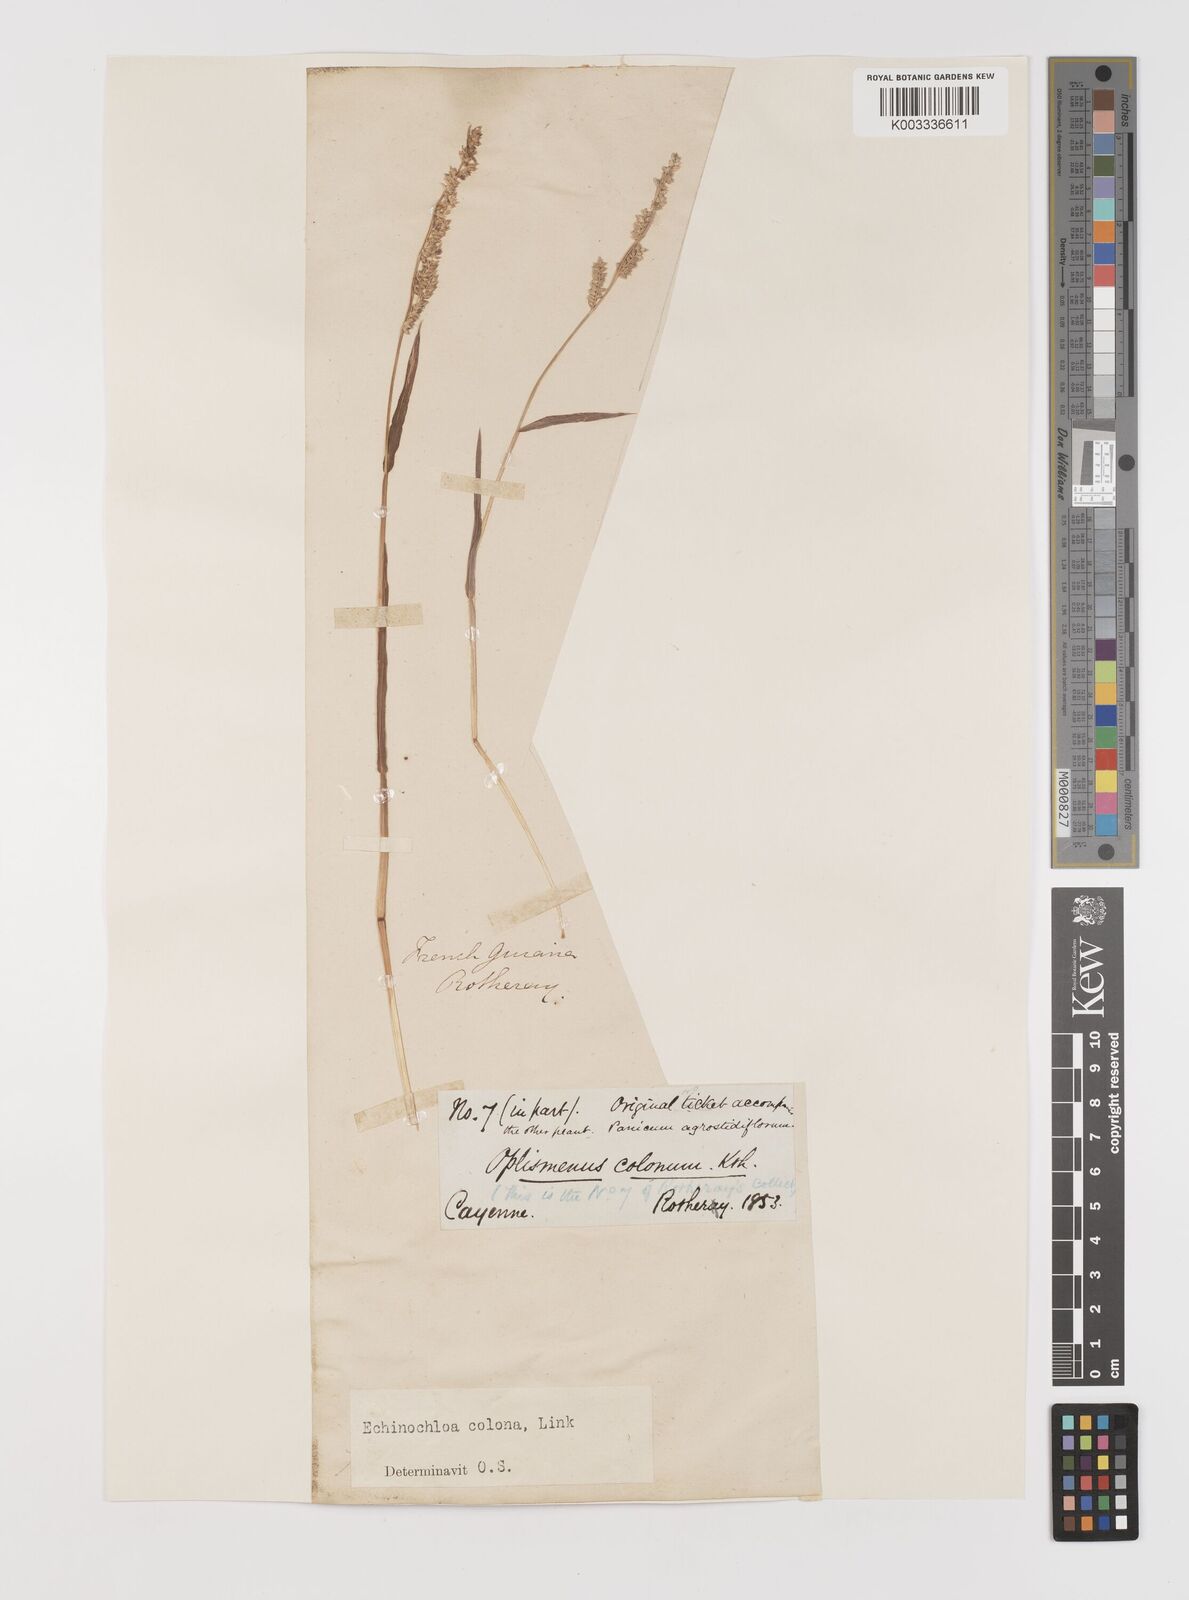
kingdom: Plantae
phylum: Tracheophyta
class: Liliopsida
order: Poales
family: Poaceae
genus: Echinochloa
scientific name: Echinochloa colonum
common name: Jungle rice
